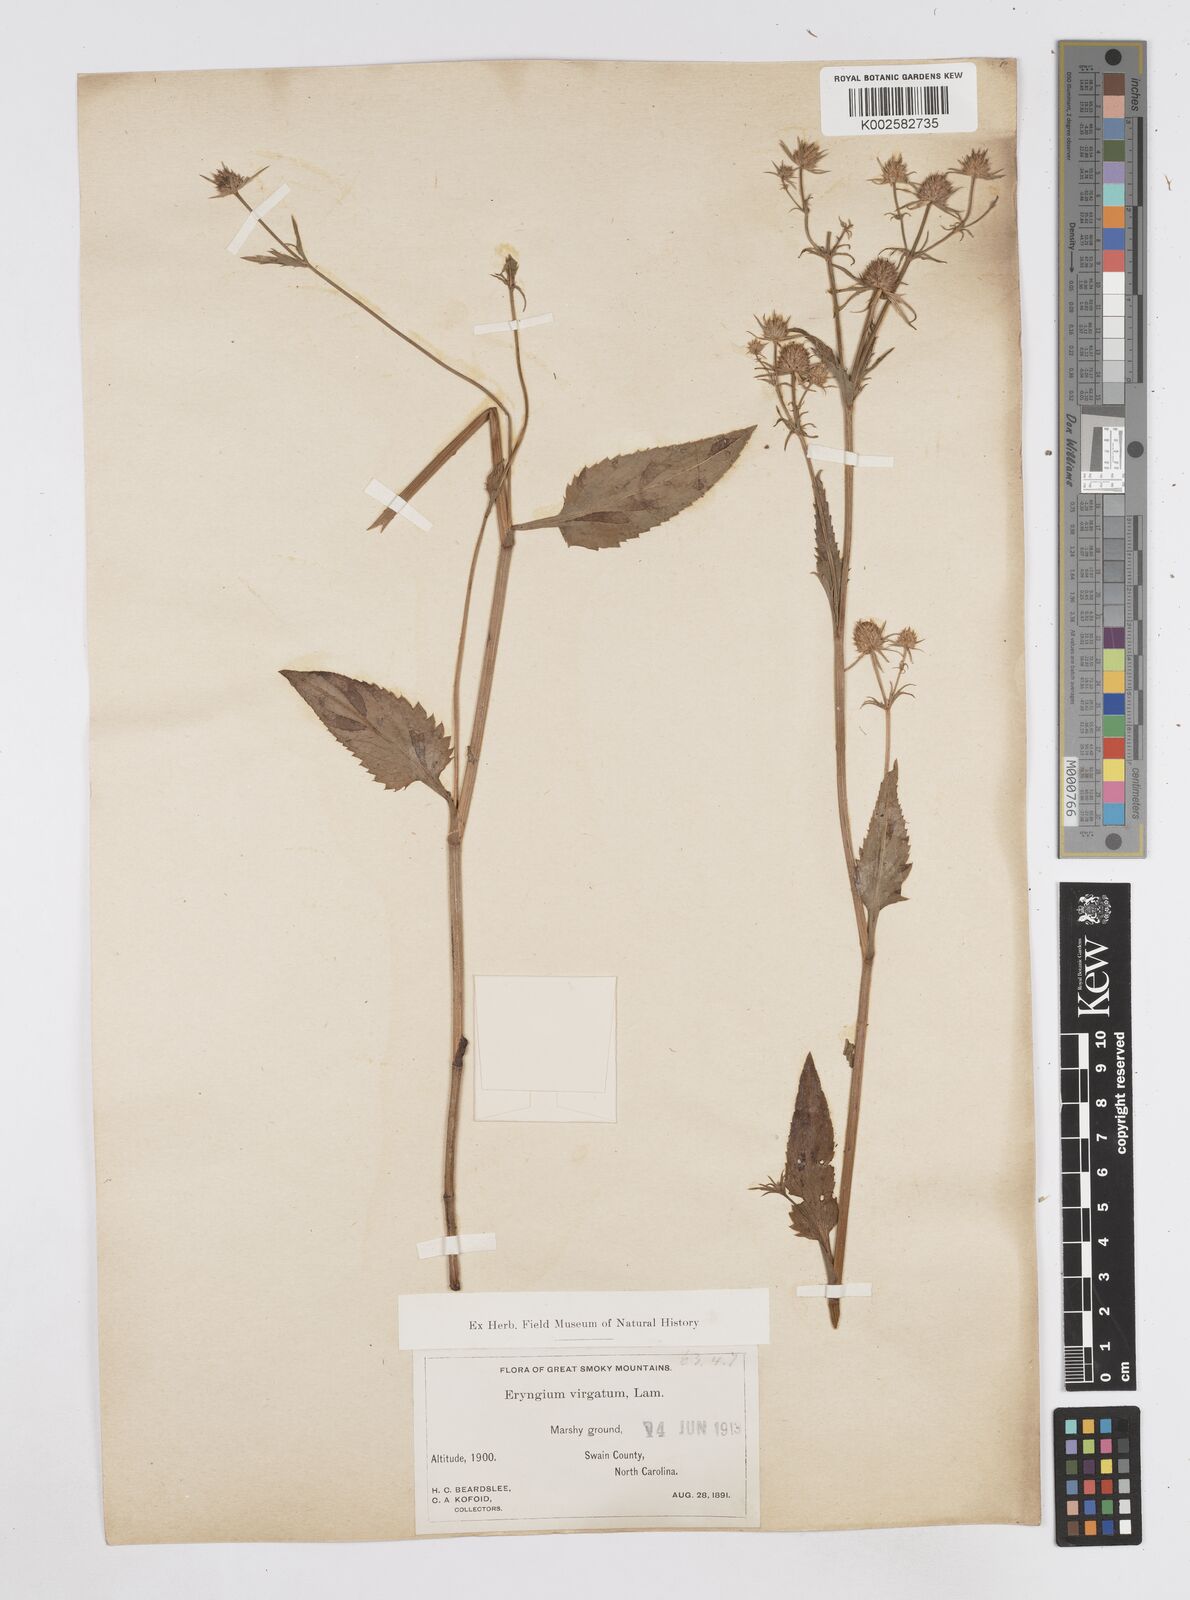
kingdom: Plantae
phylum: Tracheophyta
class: Magnoliopsida
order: Apiales
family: Apiaceae
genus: Eryngium
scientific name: Eryngium integrifolium
